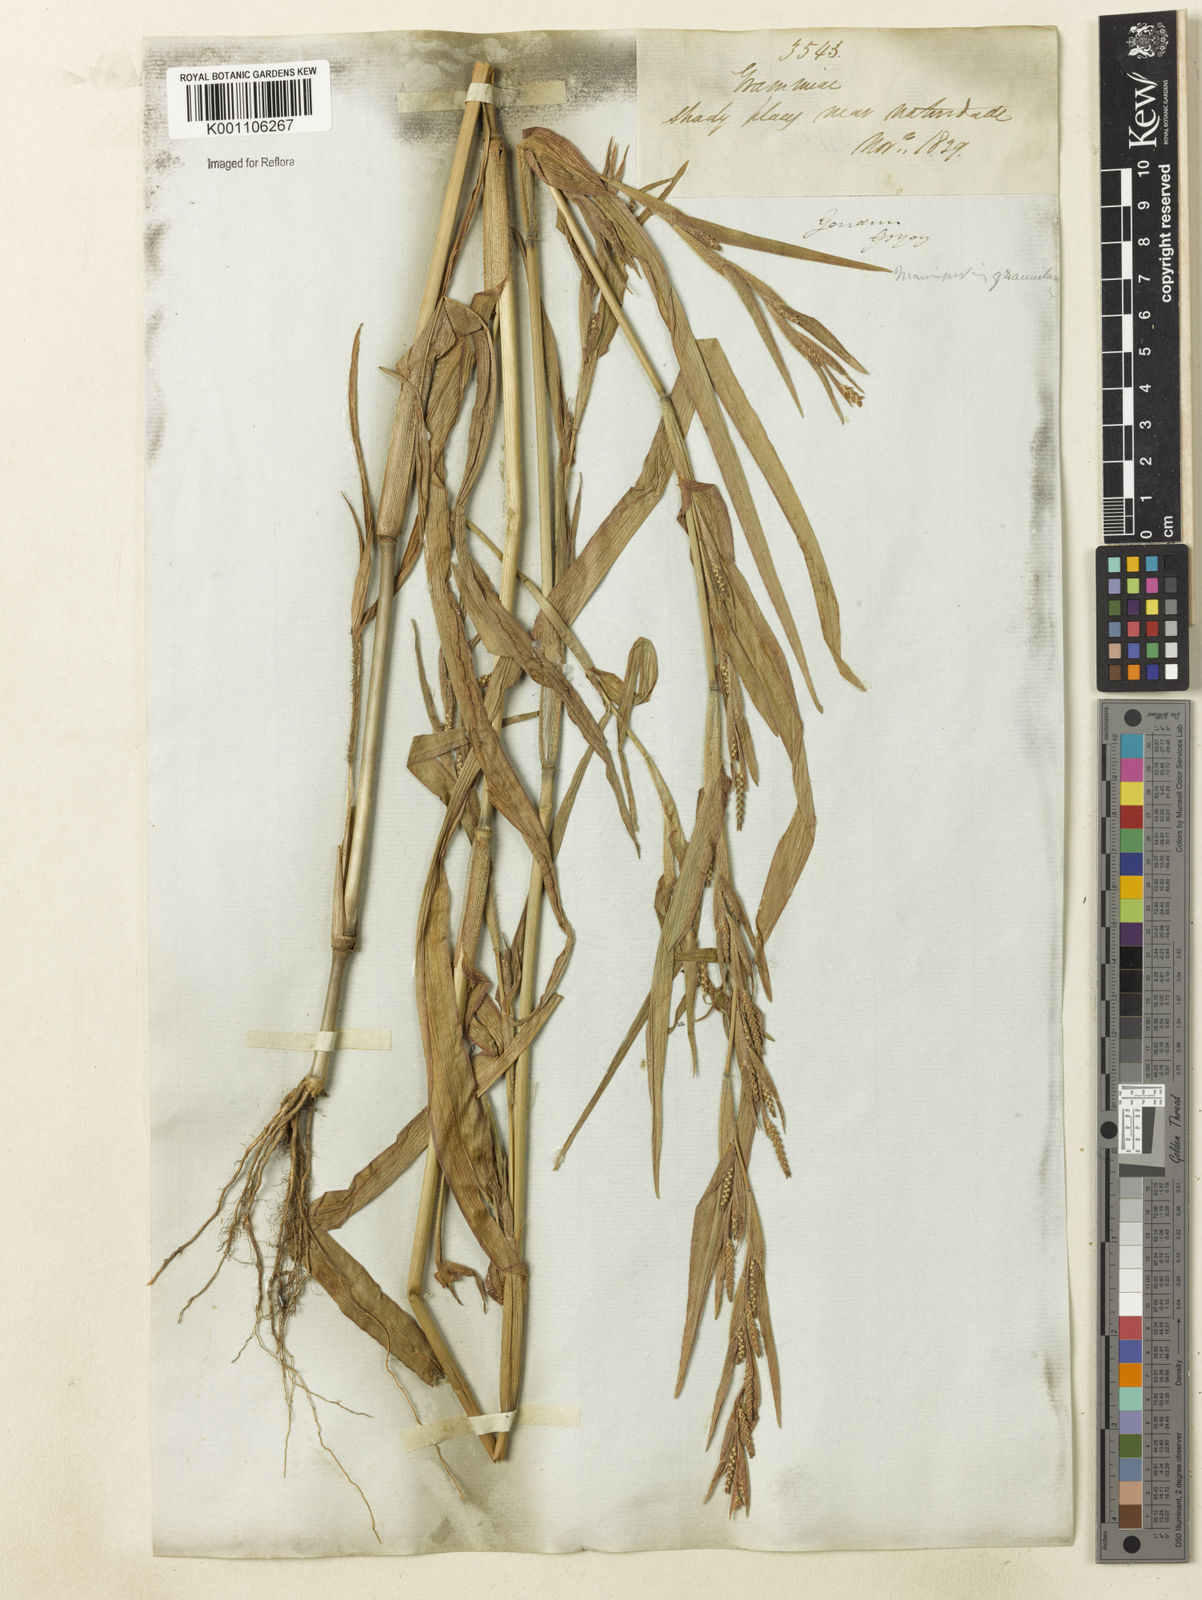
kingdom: Plantae
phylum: Tracheophyta
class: Liliopsida
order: Poales
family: Poaceae
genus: Hackelochloa
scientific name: Hackelochloa granularis
